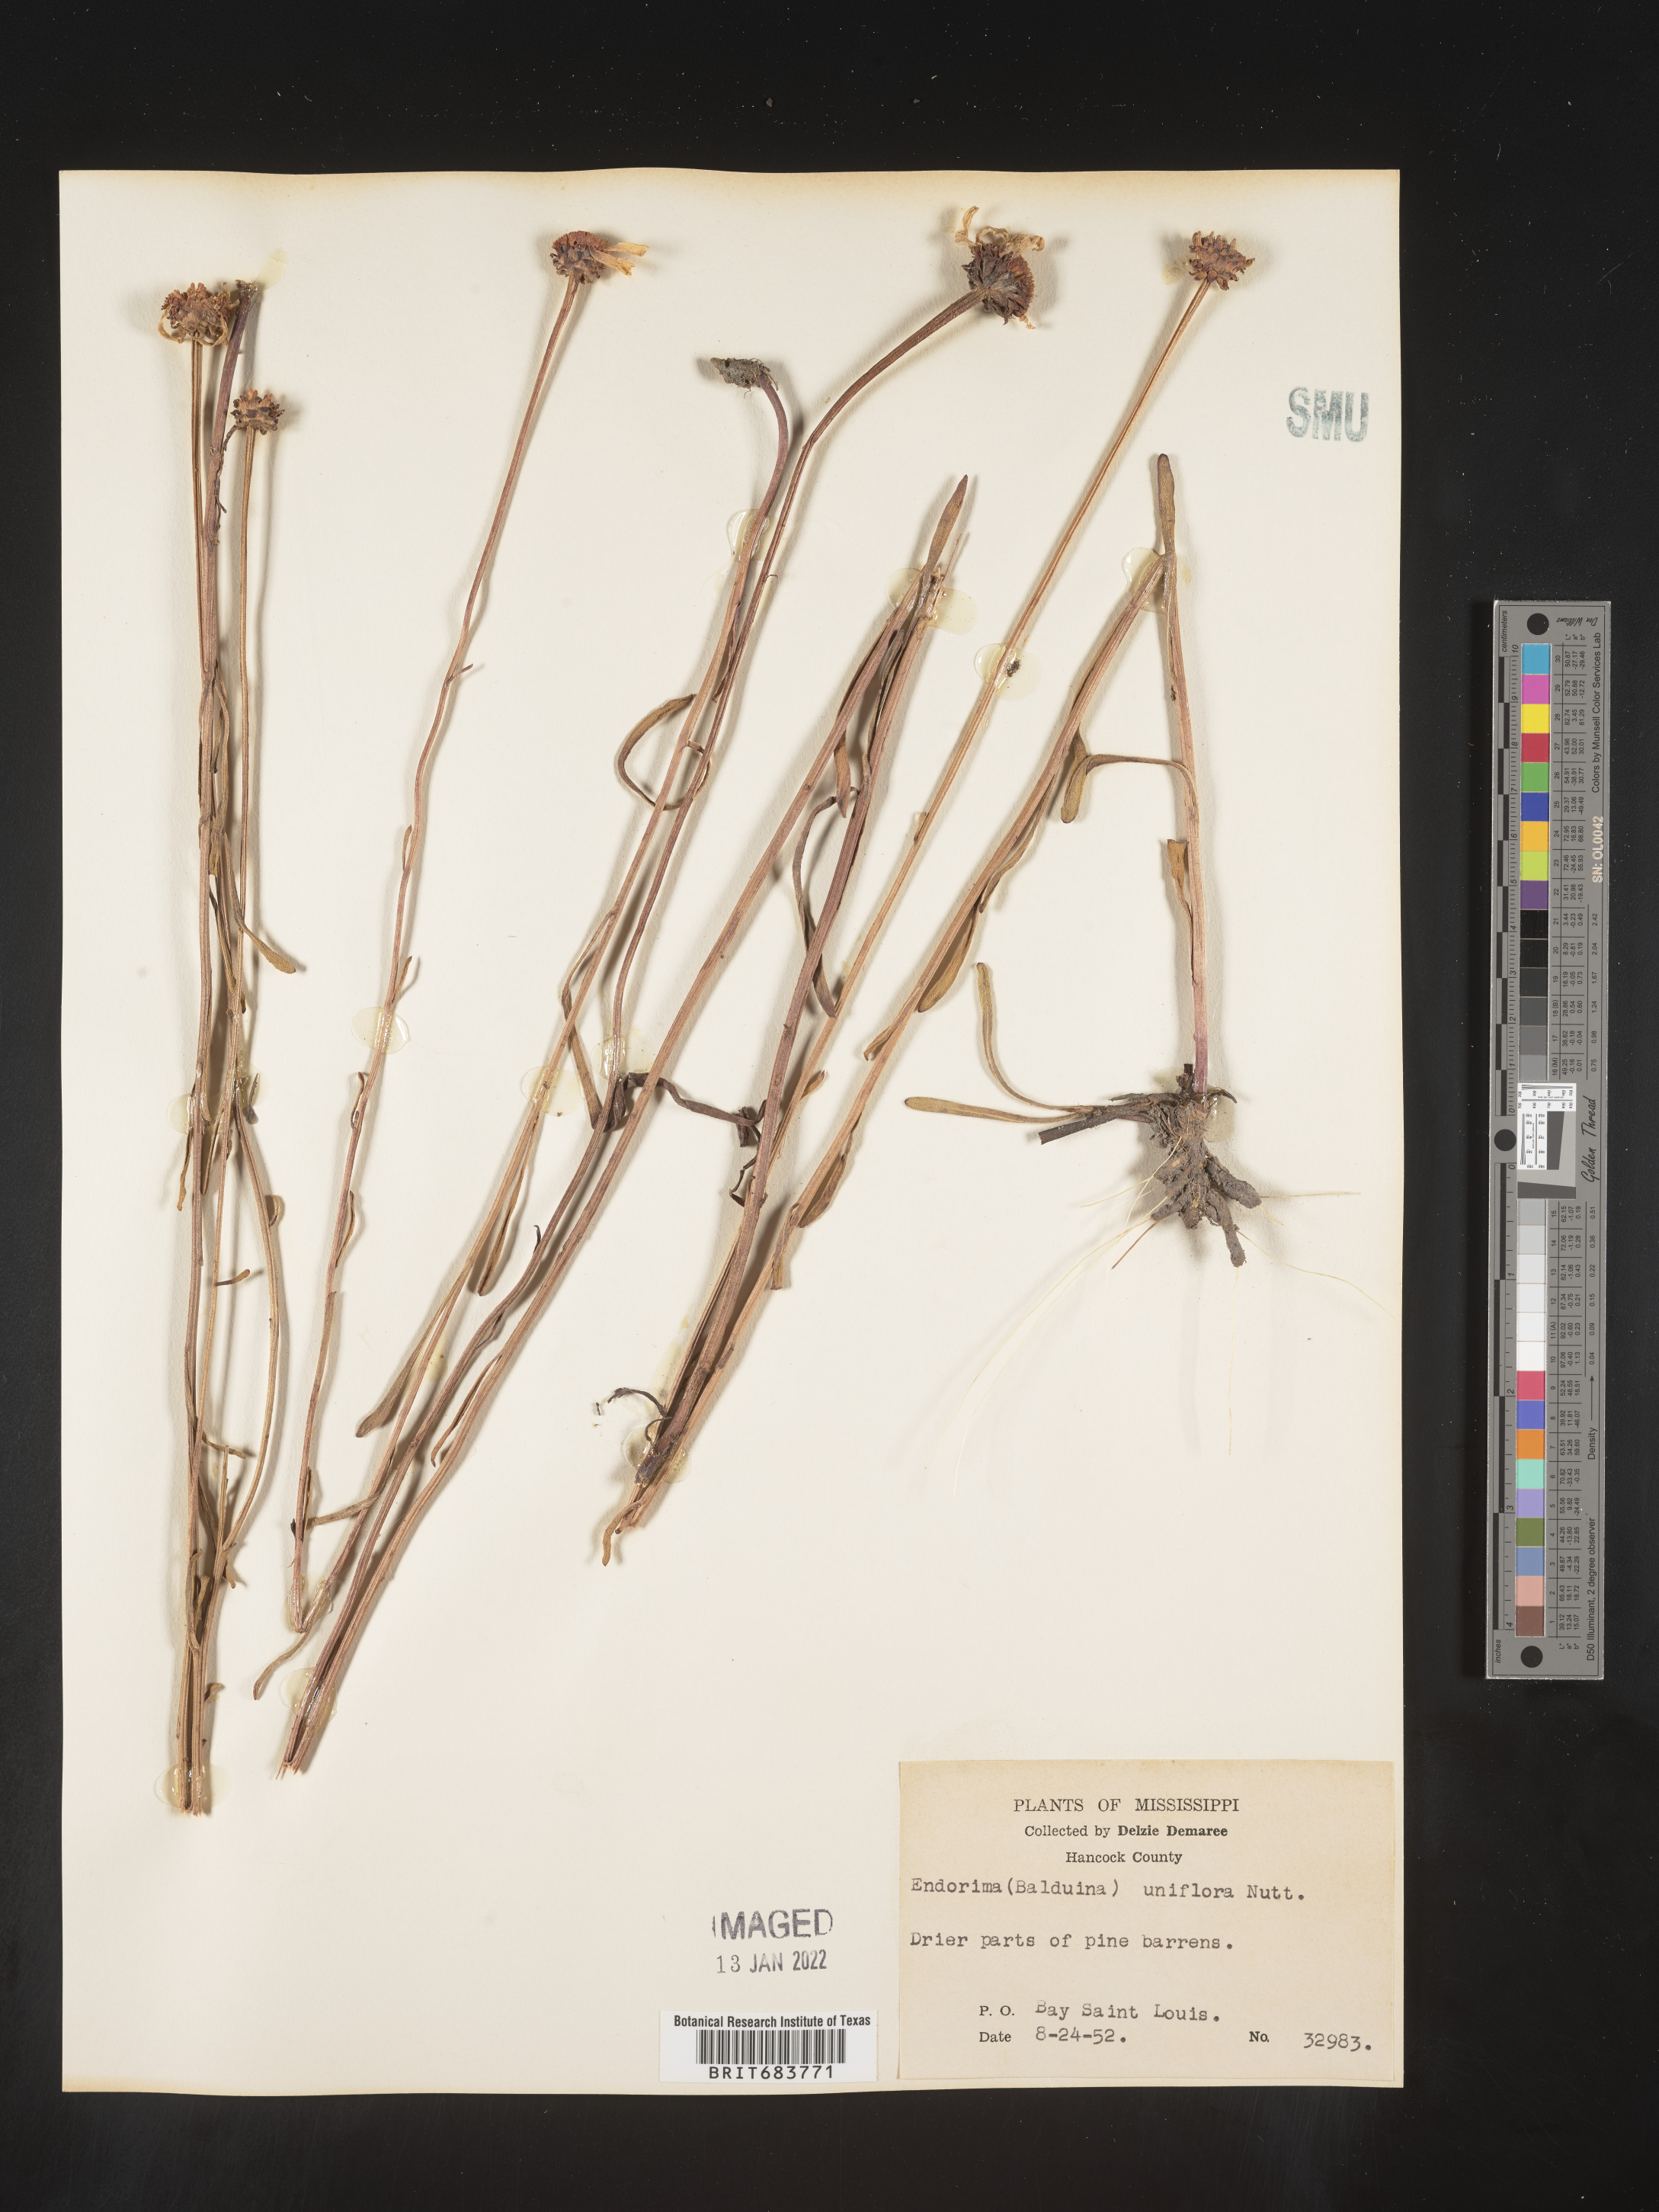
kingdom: Plantae
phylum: Tracheophyta
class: Magnoliopsida
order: Asterales
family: Asteraceae
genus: Balduina
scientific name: Balduina uniflora
